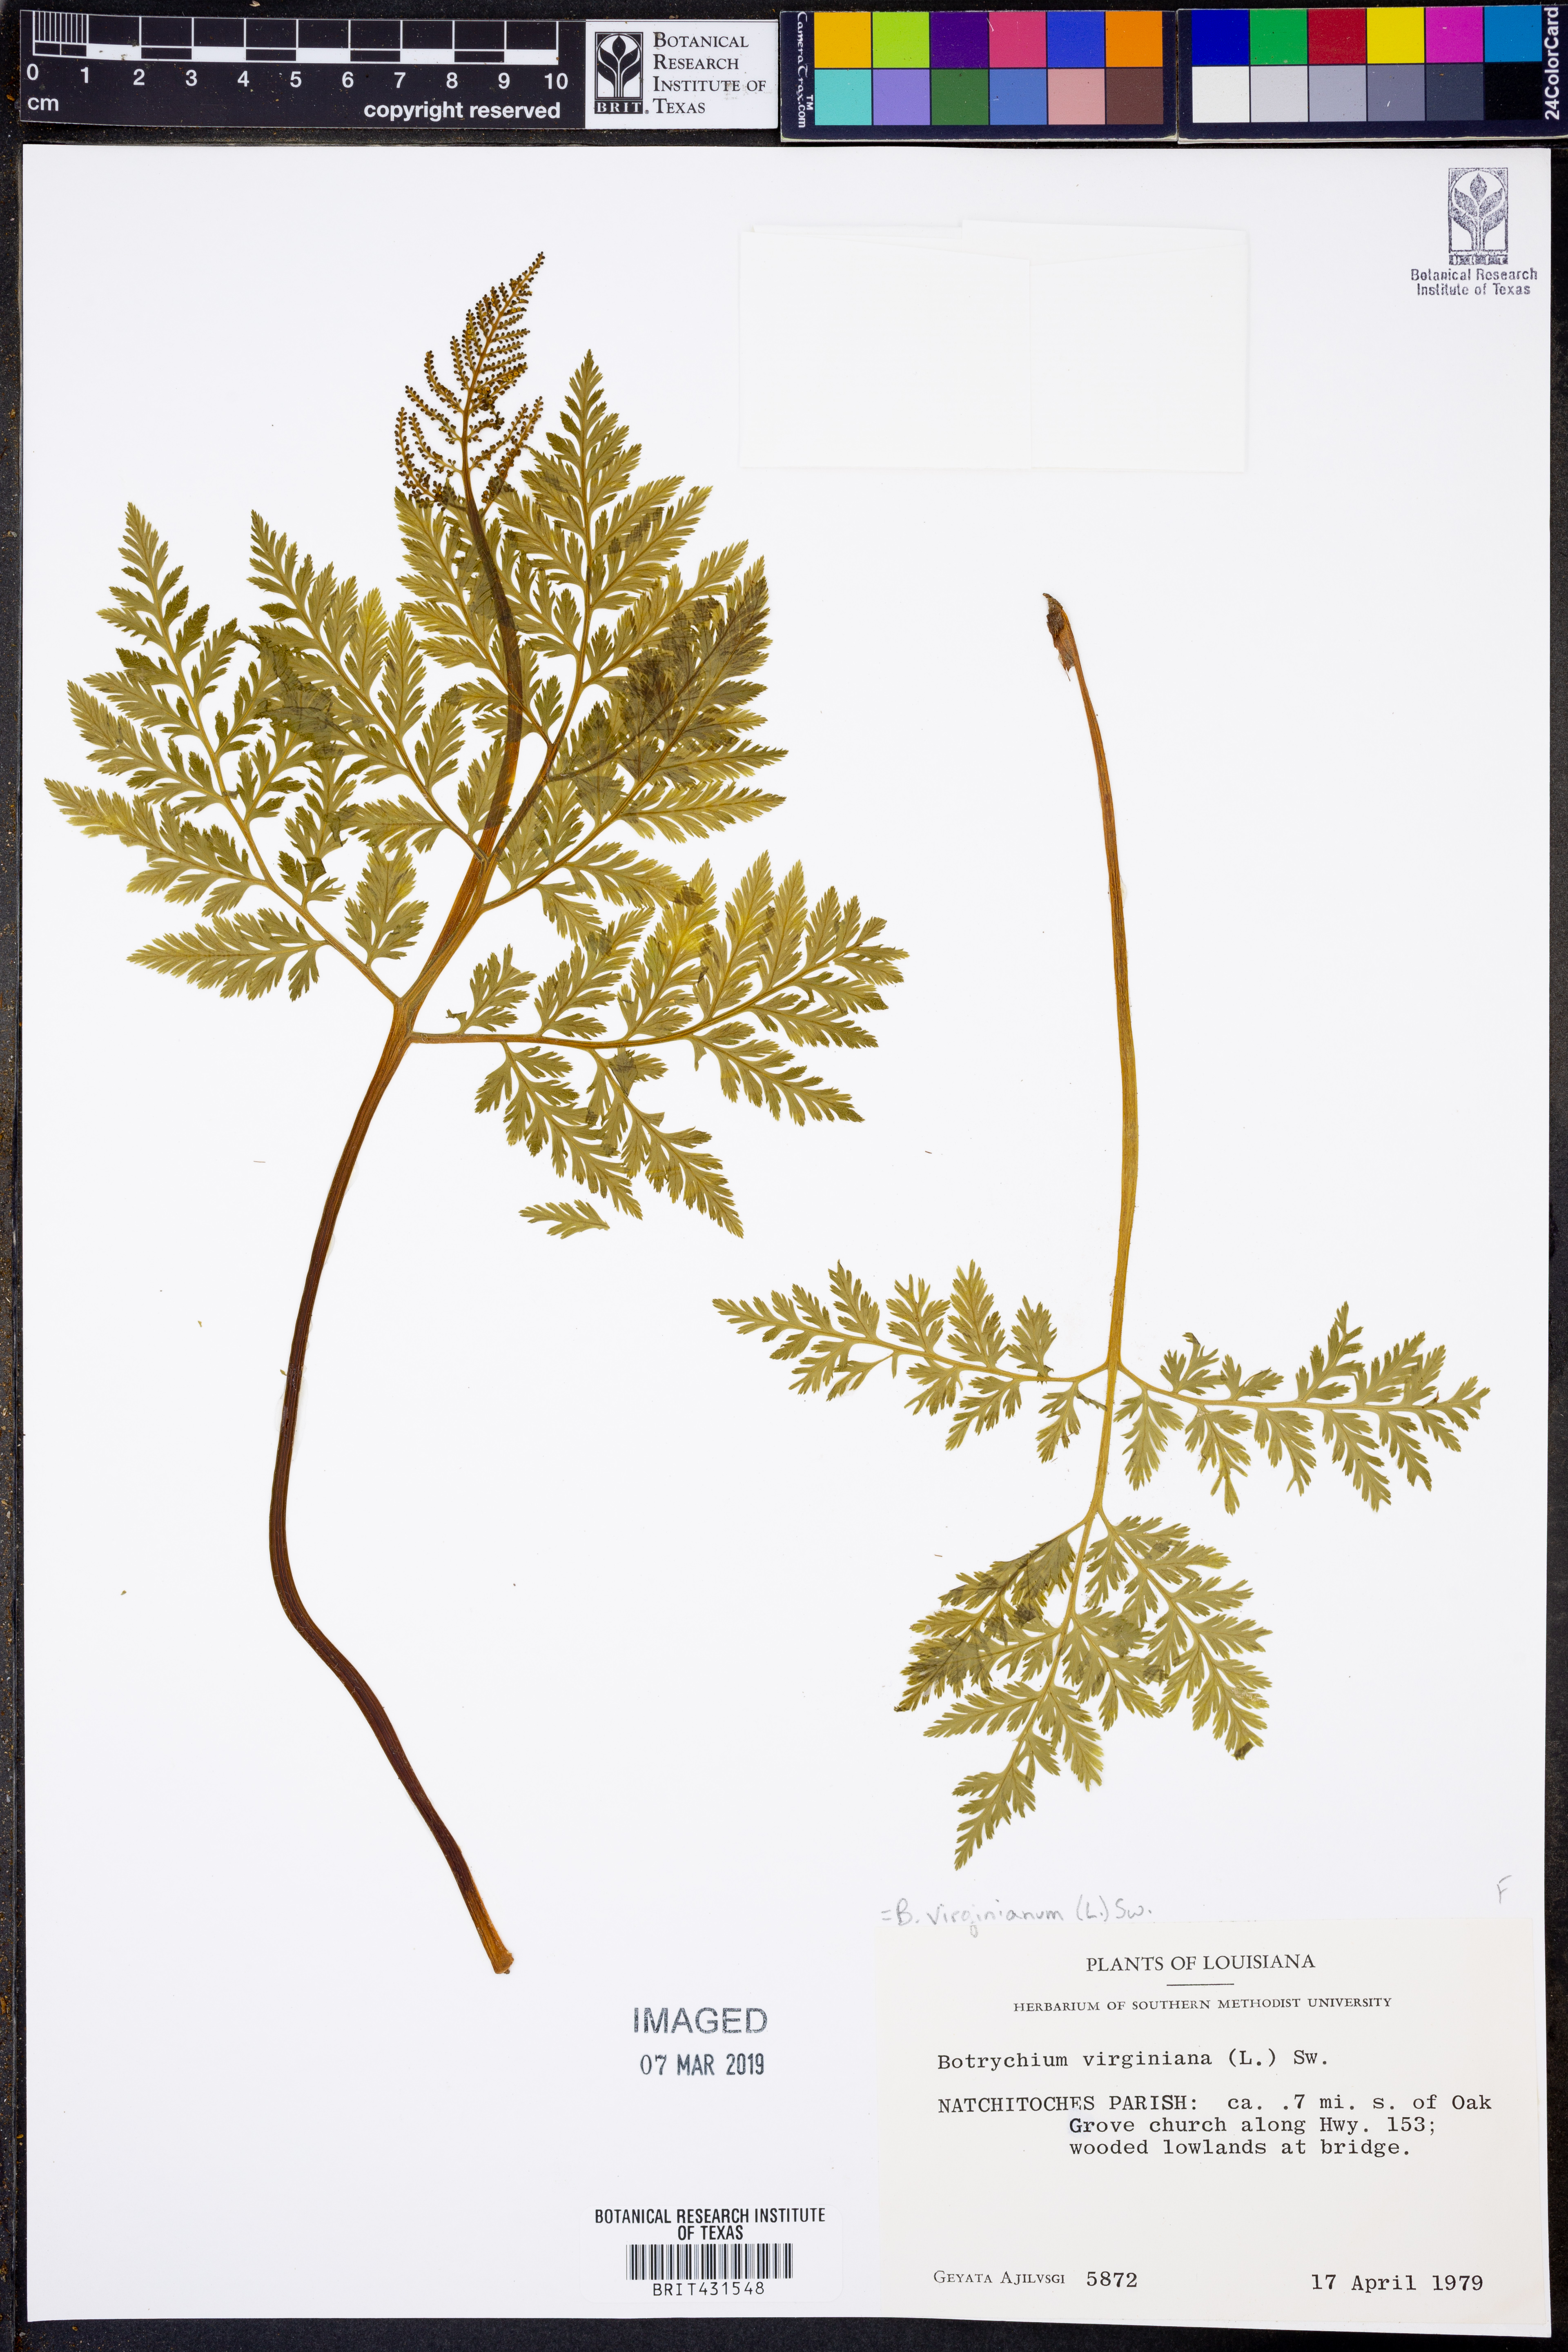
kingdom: Plantae
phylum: Tracheophyta
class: Polypodiopsida
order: Ophioglossales
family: Ophioglossaceae
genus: Botrypus
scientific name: Botrypus virginianus
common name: Common grapefern
